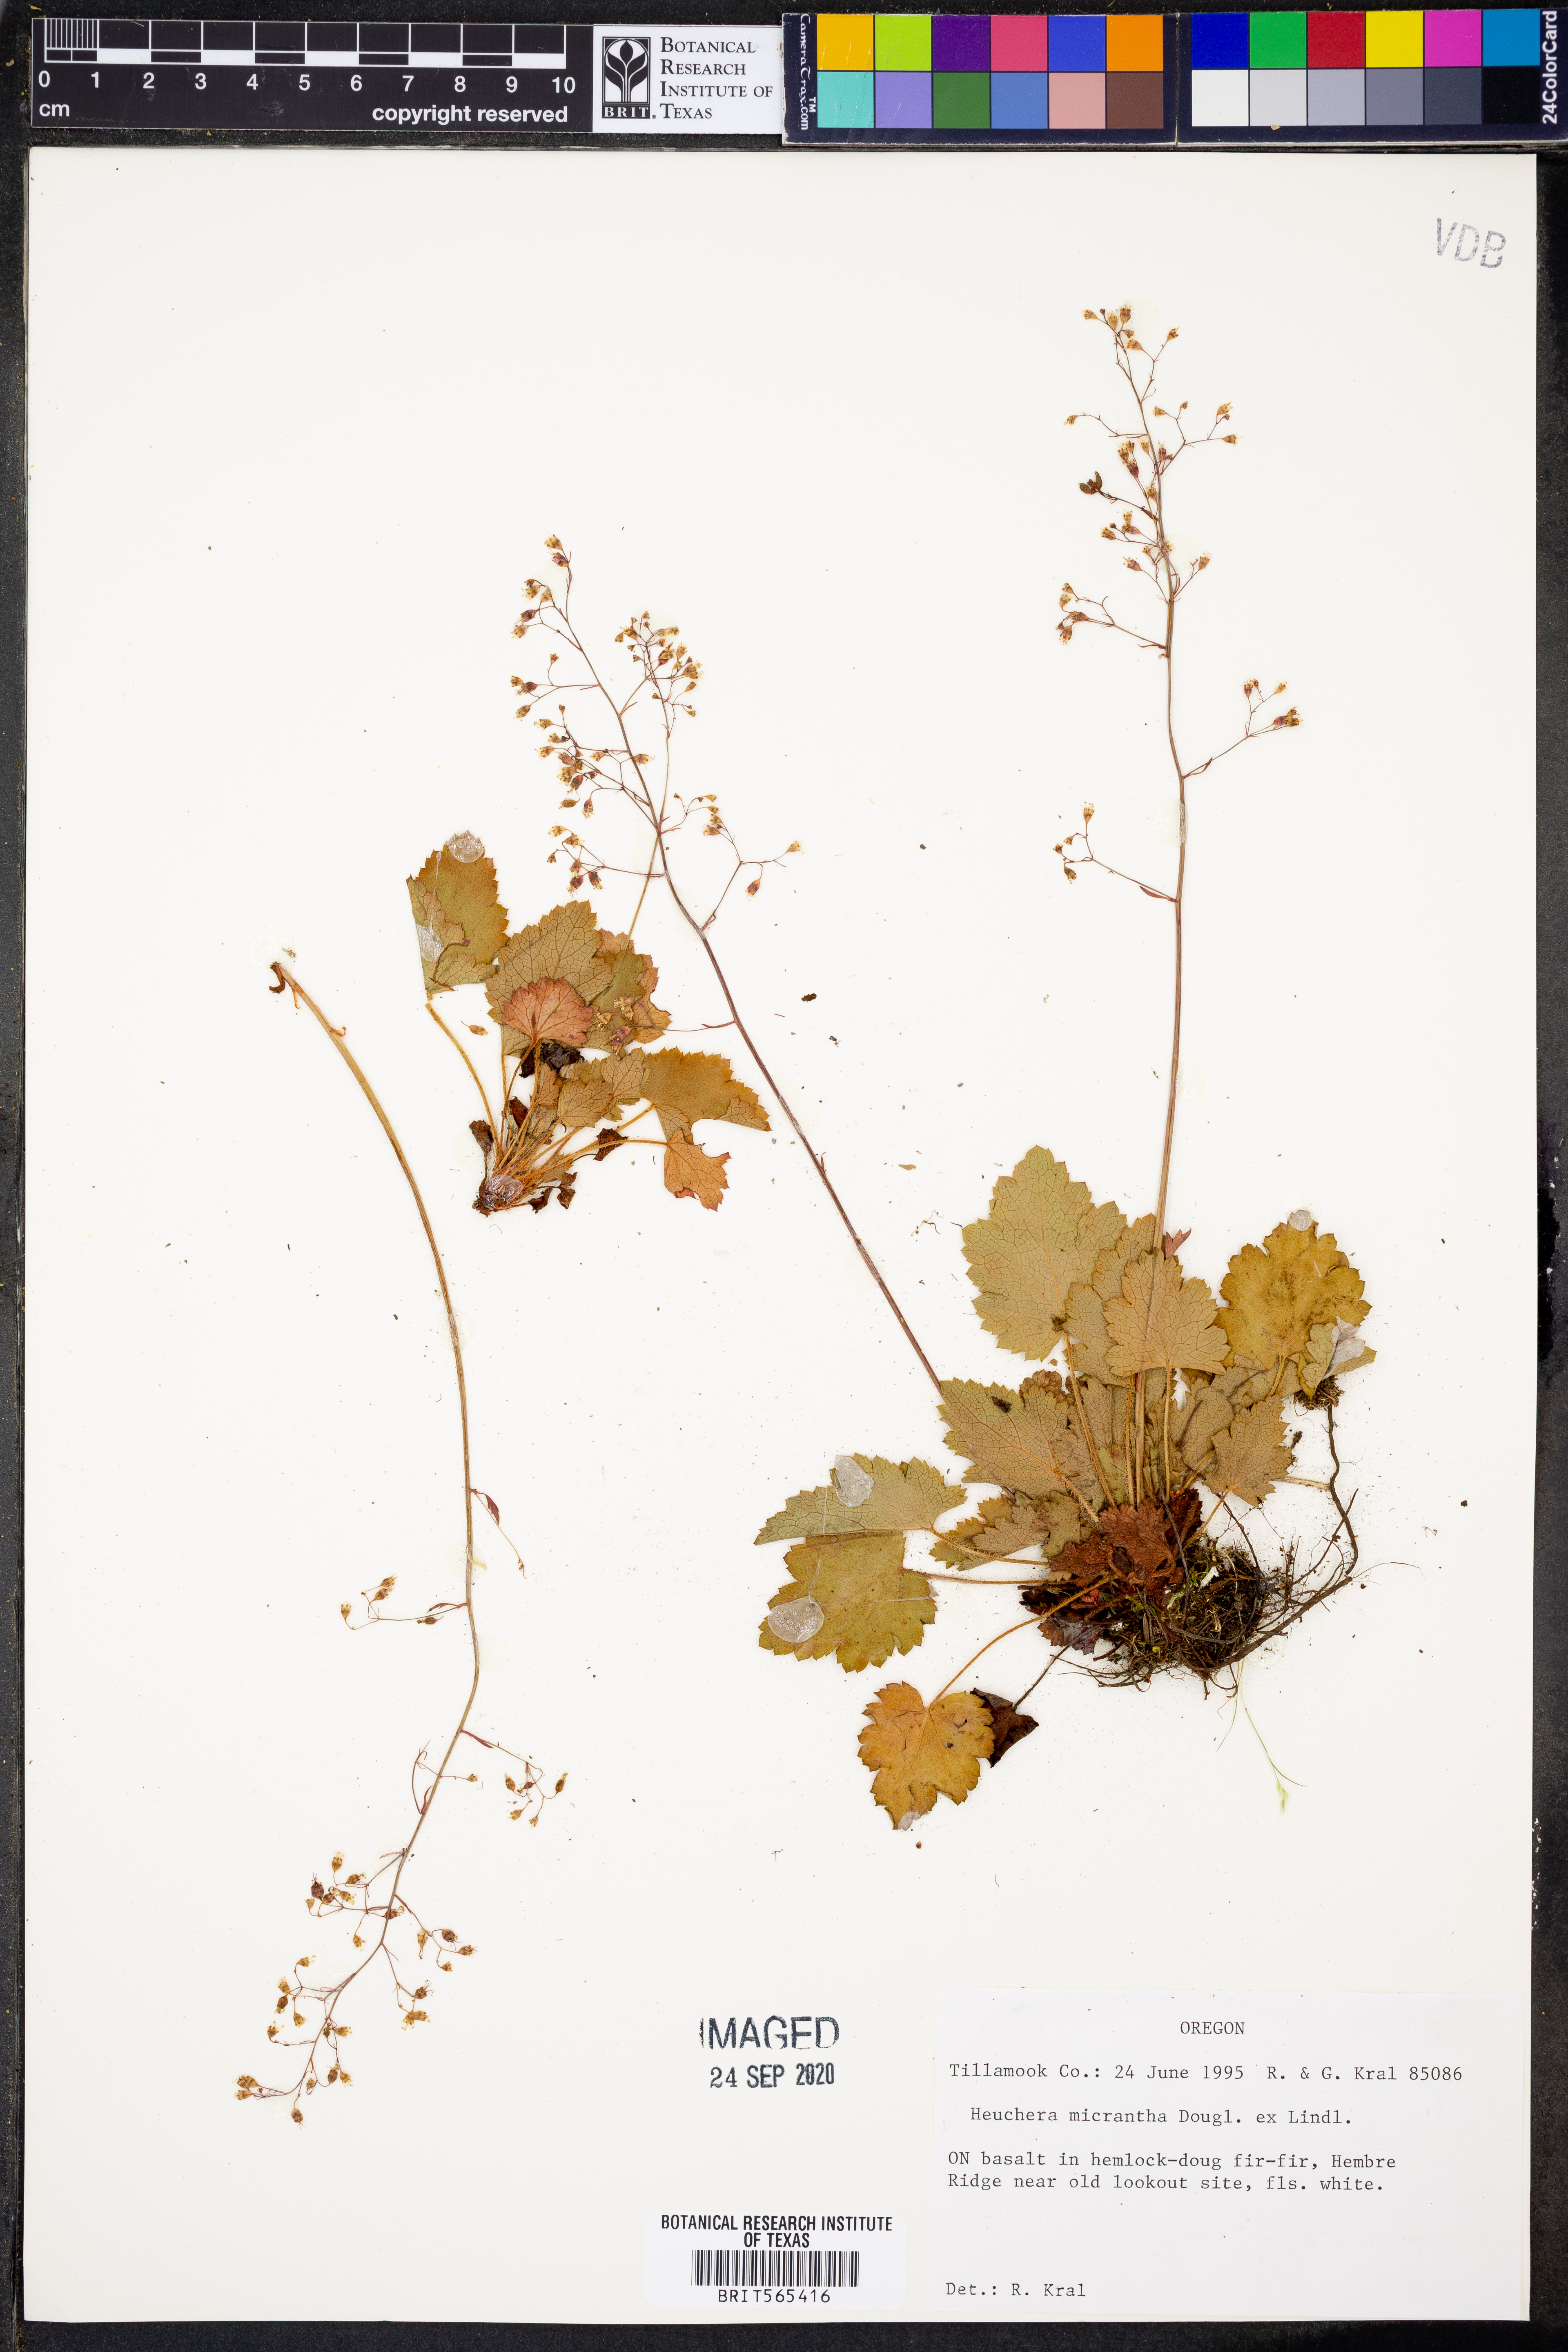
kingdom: Plantae
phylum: Tracheophyta
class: Magnoliopsida
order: Saxifragales
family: Saxifragaceae
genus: Heuchera
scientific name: Heuchera micrantha
